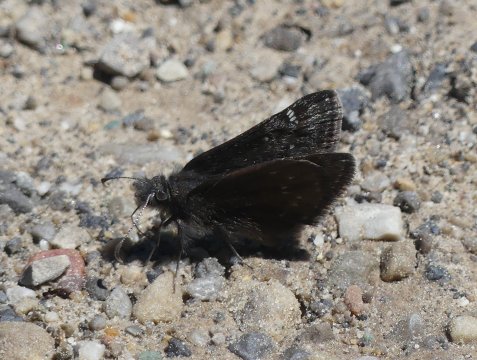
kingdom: Animalia
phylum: Arthropoda
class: Insecta
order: Lepidoptera
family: Hesperiidae
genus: Gesta
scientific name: Gesta
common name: Persius Duskywing
